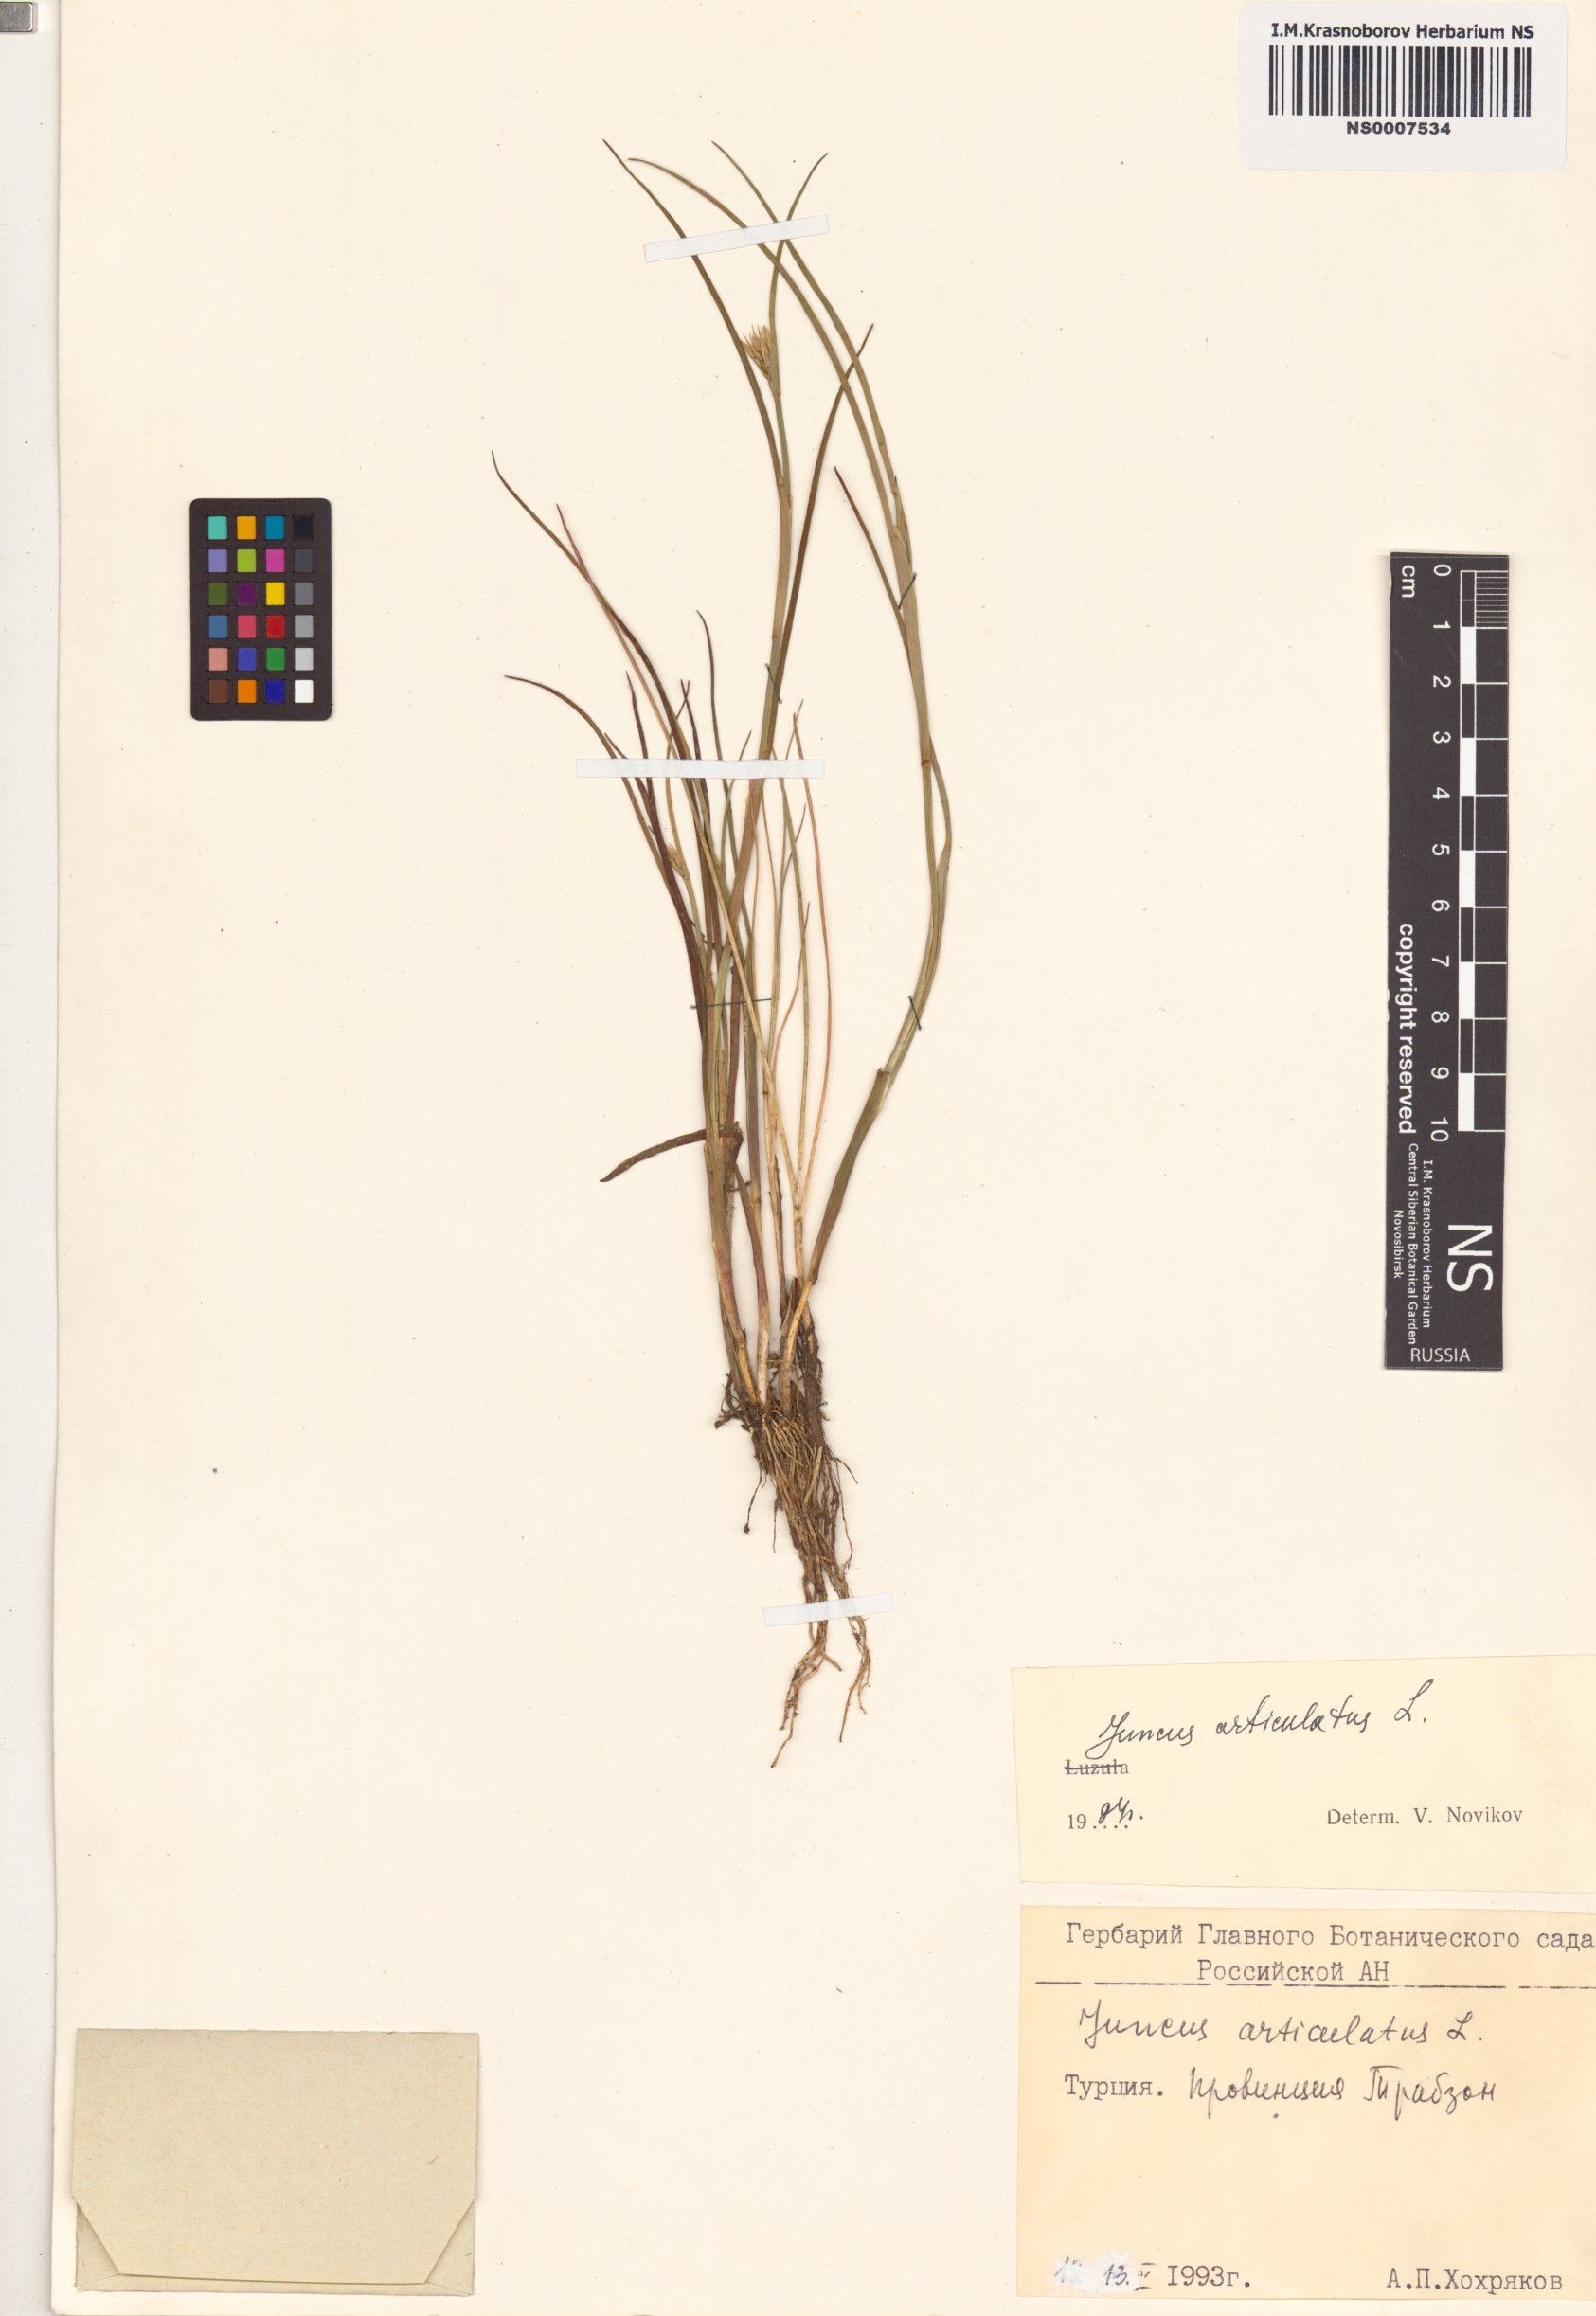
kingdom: Plantae
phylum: Tracheophyta
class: Liliopsida
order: Poales
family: Juncaceae
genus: Juncus
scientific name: Juncus articulatus
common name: Jointed rush
